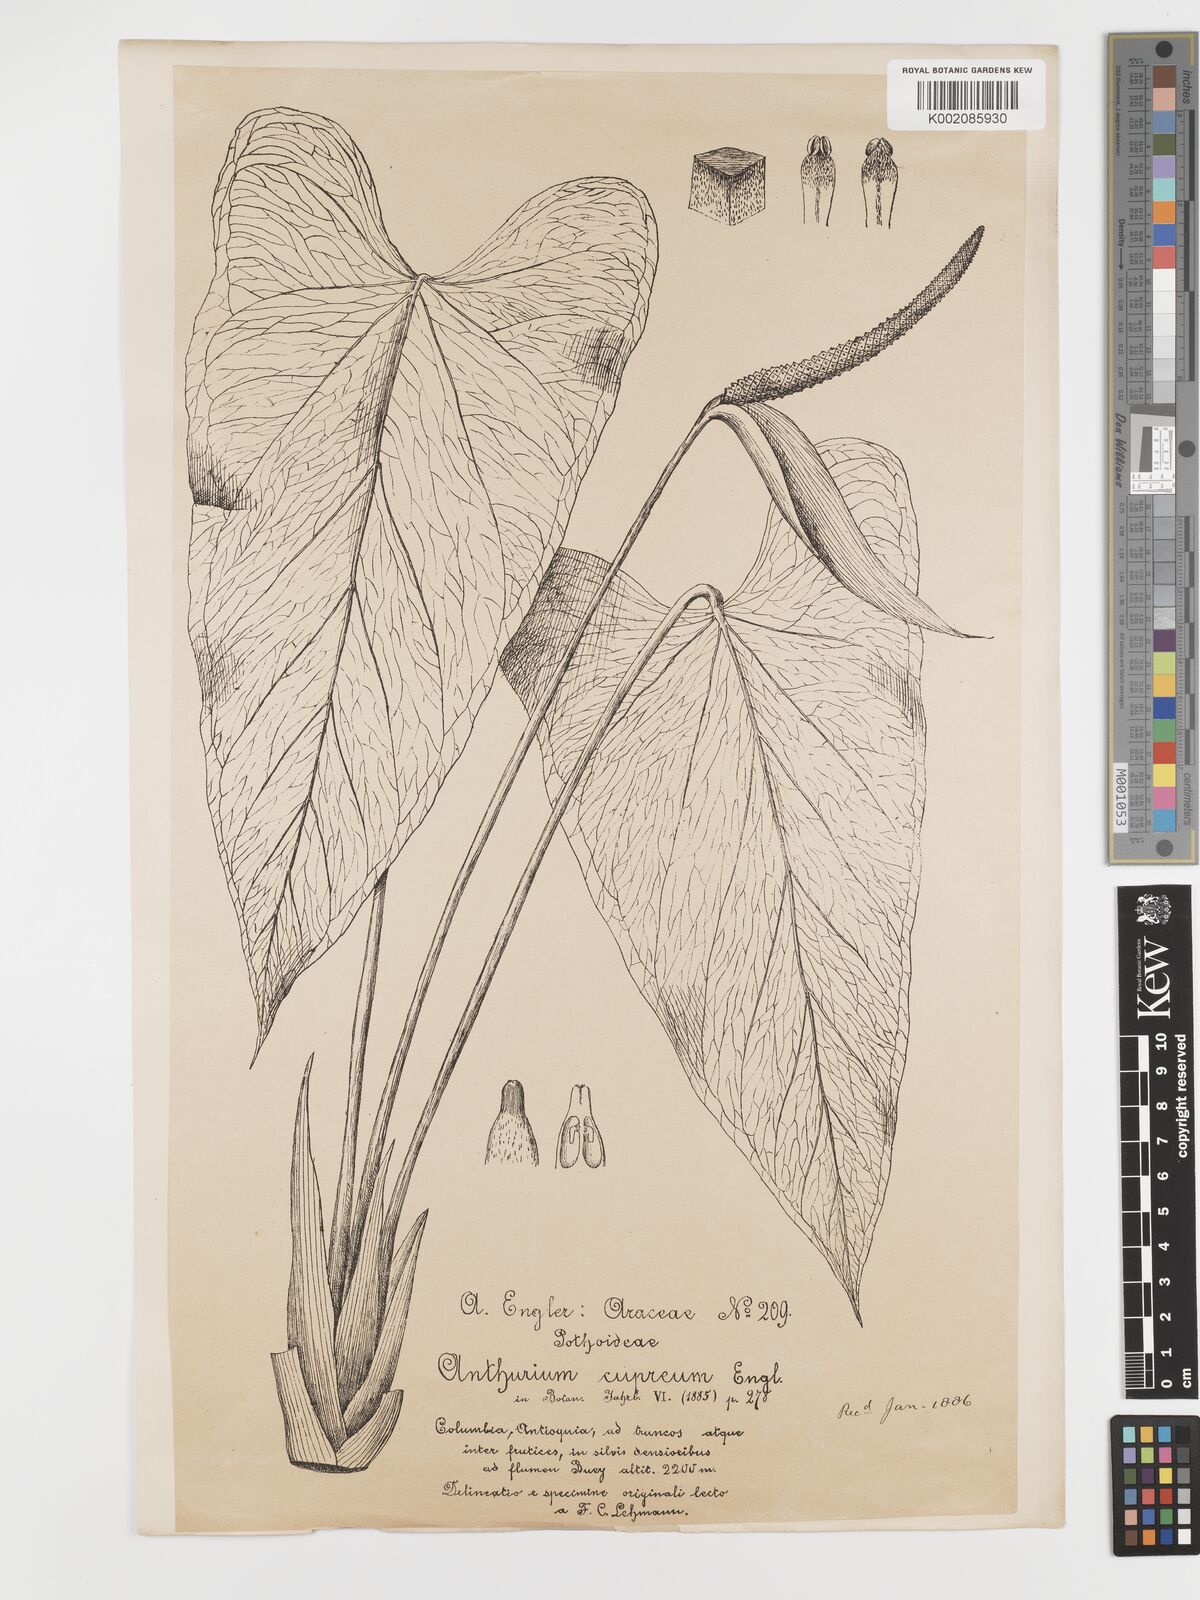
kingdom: Plantae
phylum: Tracheophyta
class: Liliopsida
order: Alismatales
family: Araceae
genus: Anthurium
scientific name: Anthurium cupreum
